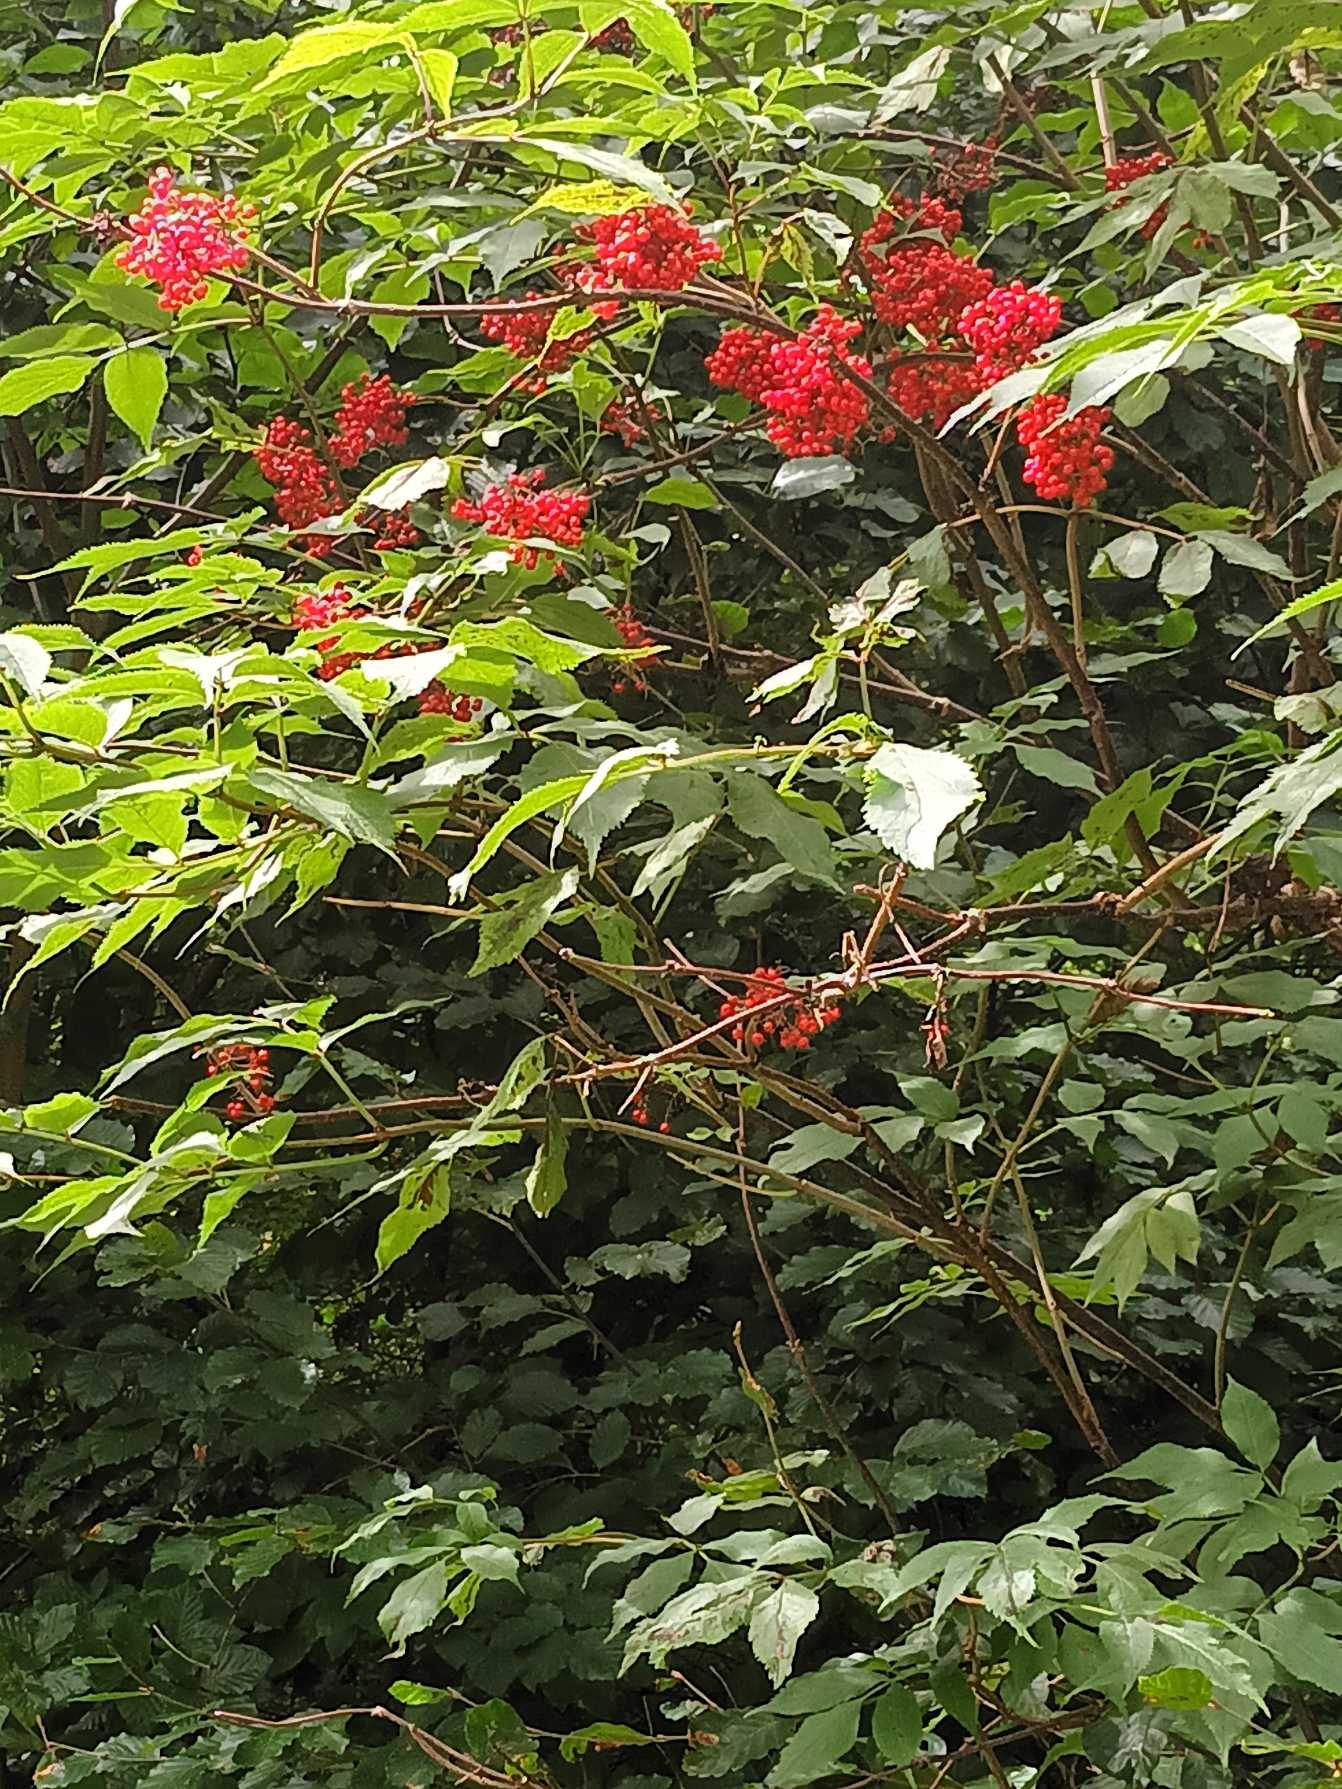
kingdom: Plantae
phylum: Tracheophyta
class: Magnoliopsida
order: Dipsacales
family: Viburnaceae
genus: Sambucus
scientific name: Sambucus racemosa
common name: Drue-hyld
